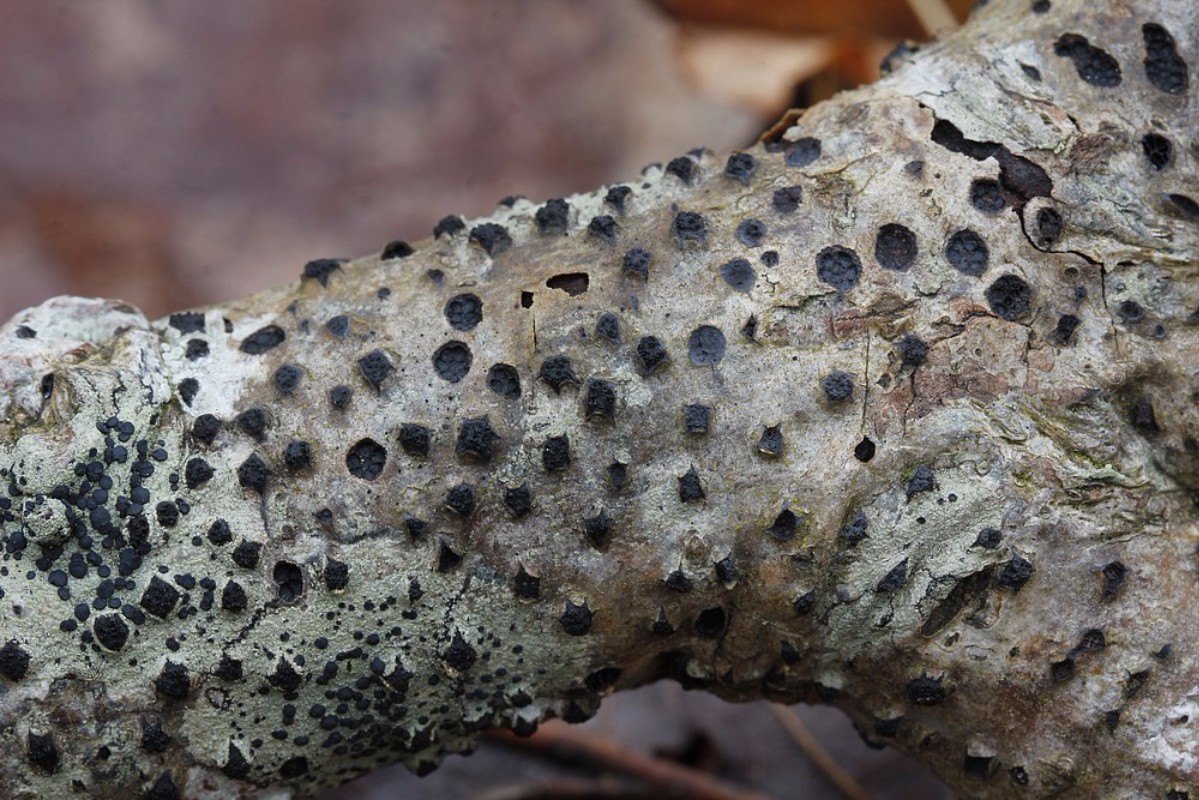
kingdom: Fungi
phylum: Ascomycota
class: Sordariomycetes
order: Xylariales
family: Diatrypaceae
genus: Diatrypella
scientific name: Diatrypella quercina
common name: ege-kulskorpe
